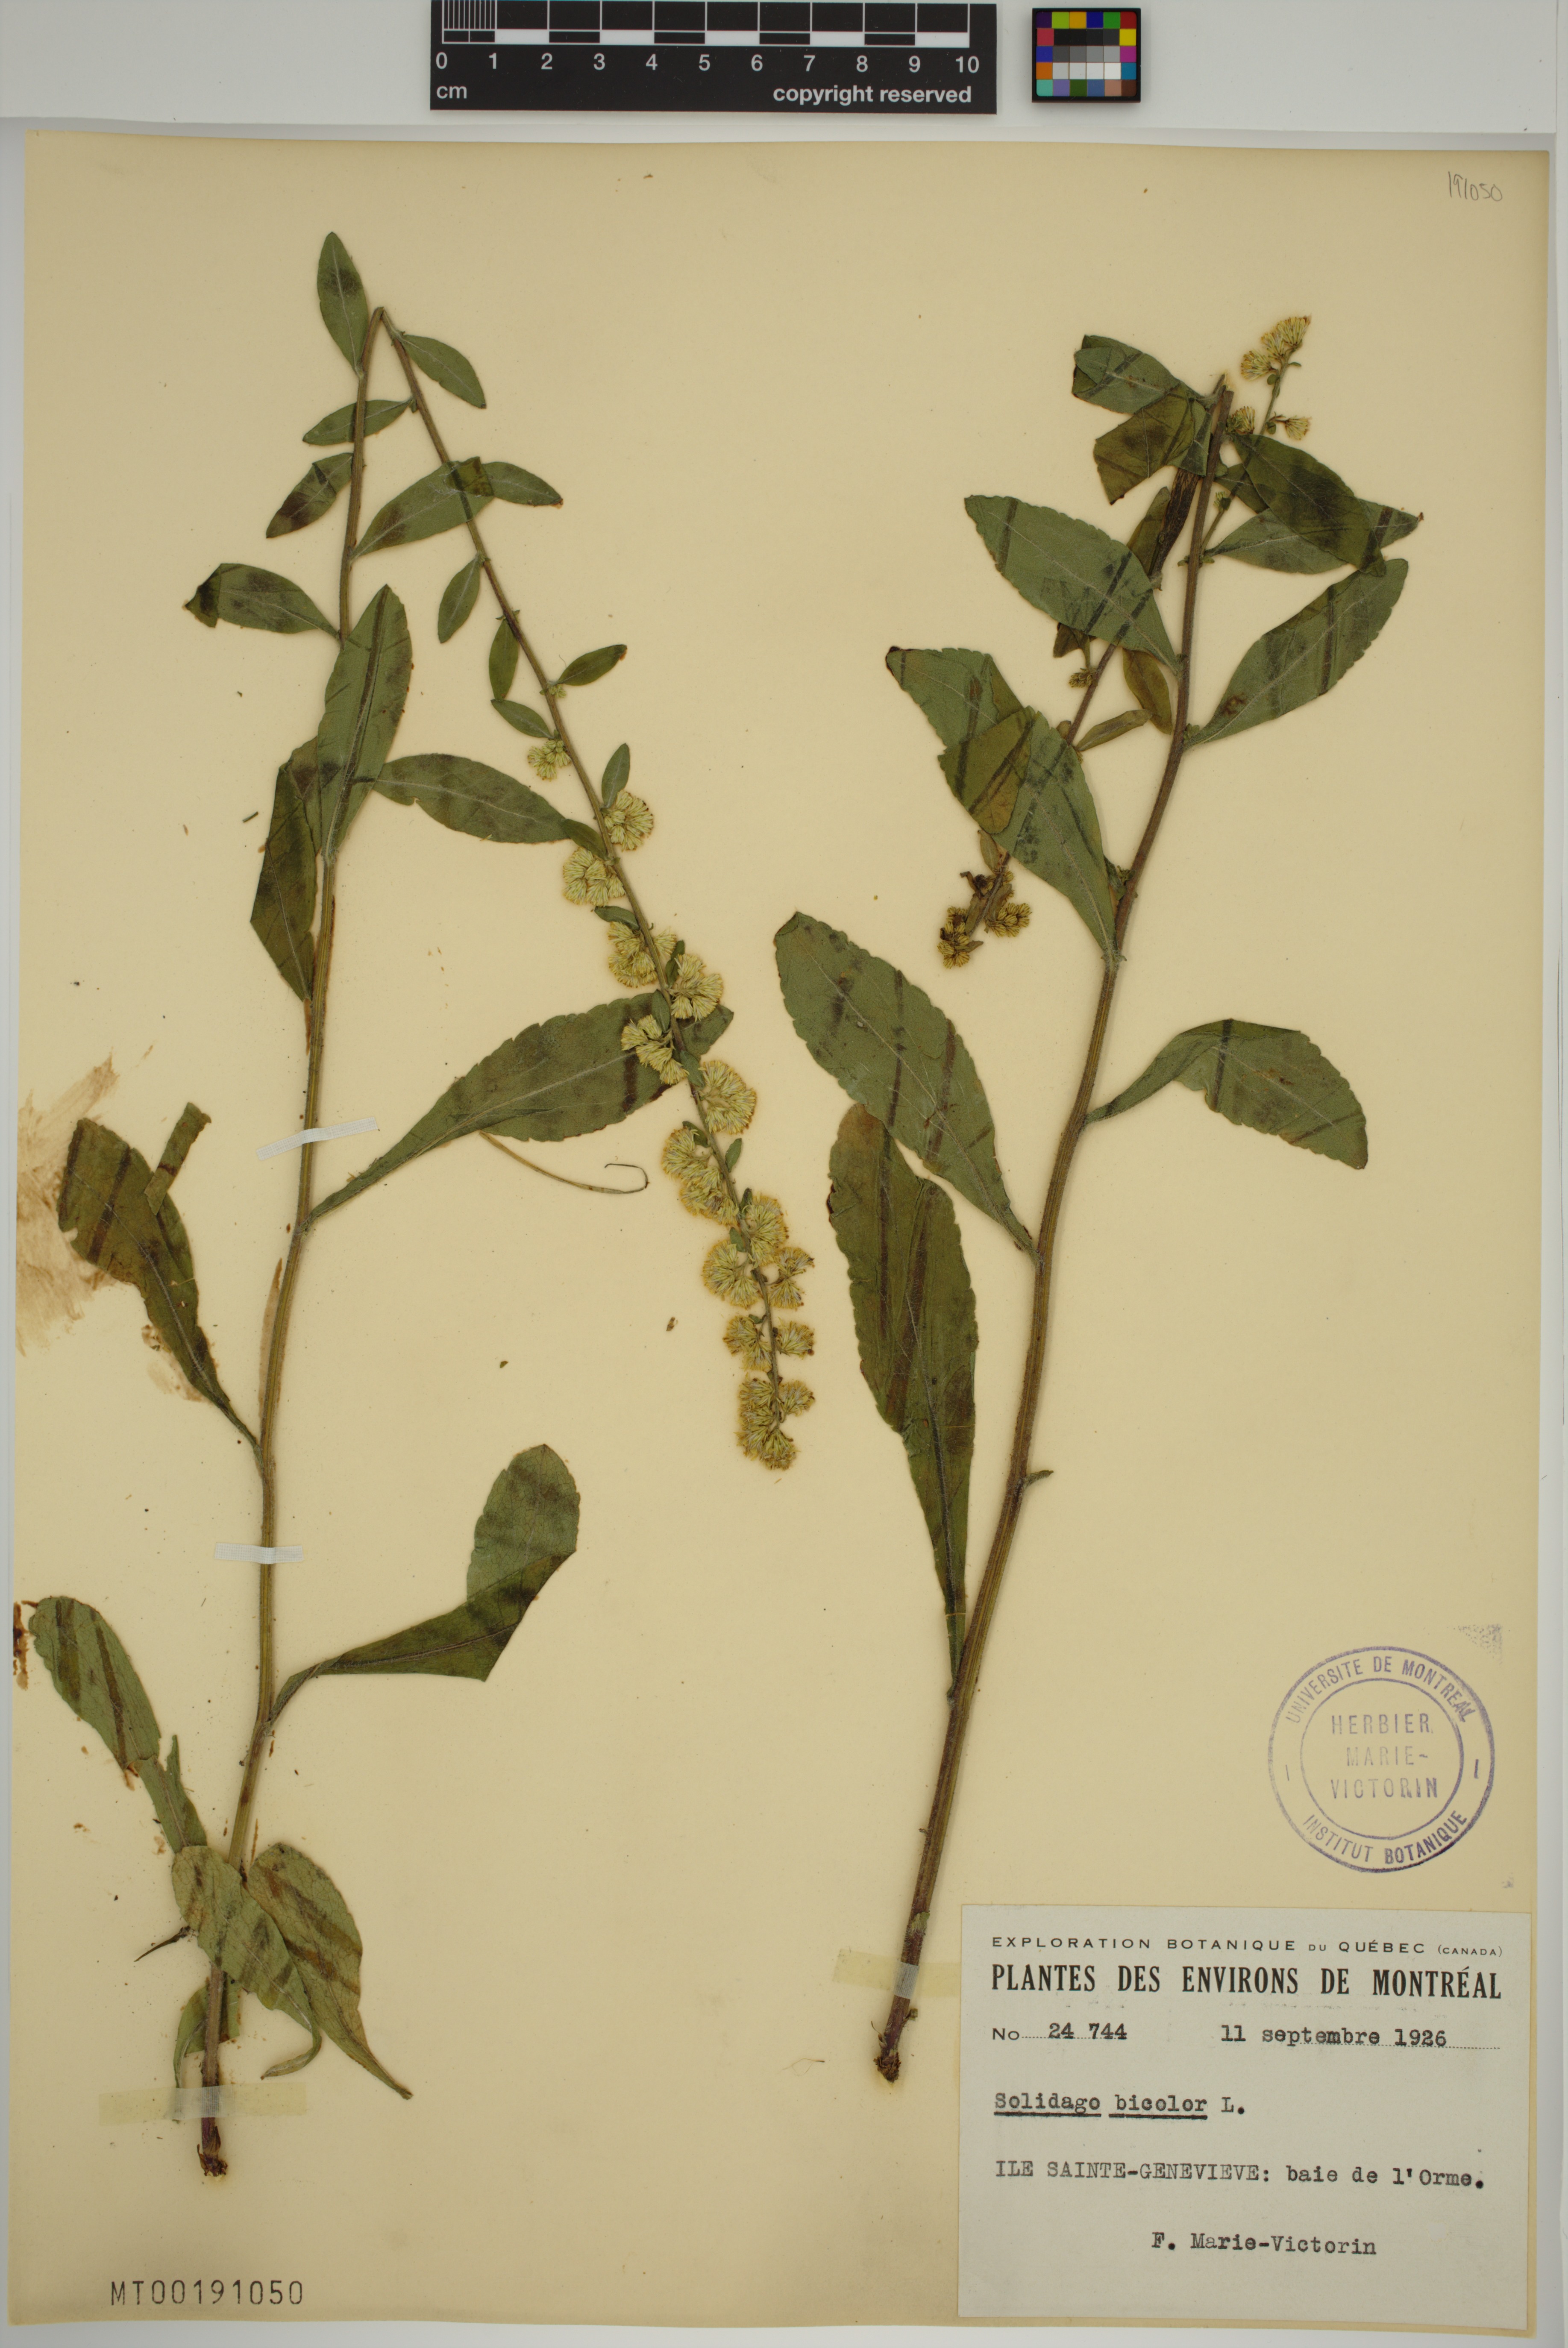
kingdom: Plantae
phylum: Tracheophyta
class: Magnoliopsida
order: Asterales
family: Asteraceae
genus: Solidago
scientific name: Solidago bicolor
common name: Silverrod
